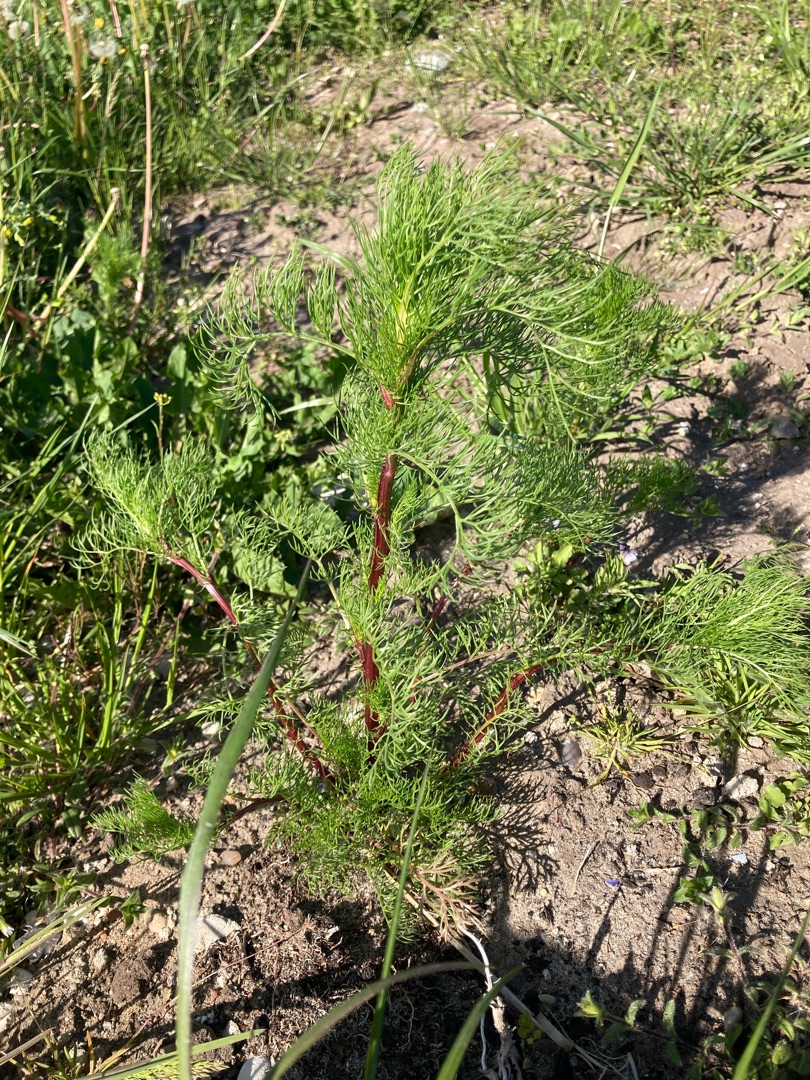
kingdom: Plantae
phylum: Tracheophyta
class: Magnoliopsida
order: Asterales
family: Asteraceae
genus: Tripleurospermum
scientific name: Tripleurospermum inodorum
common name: Lugtløs kamille
